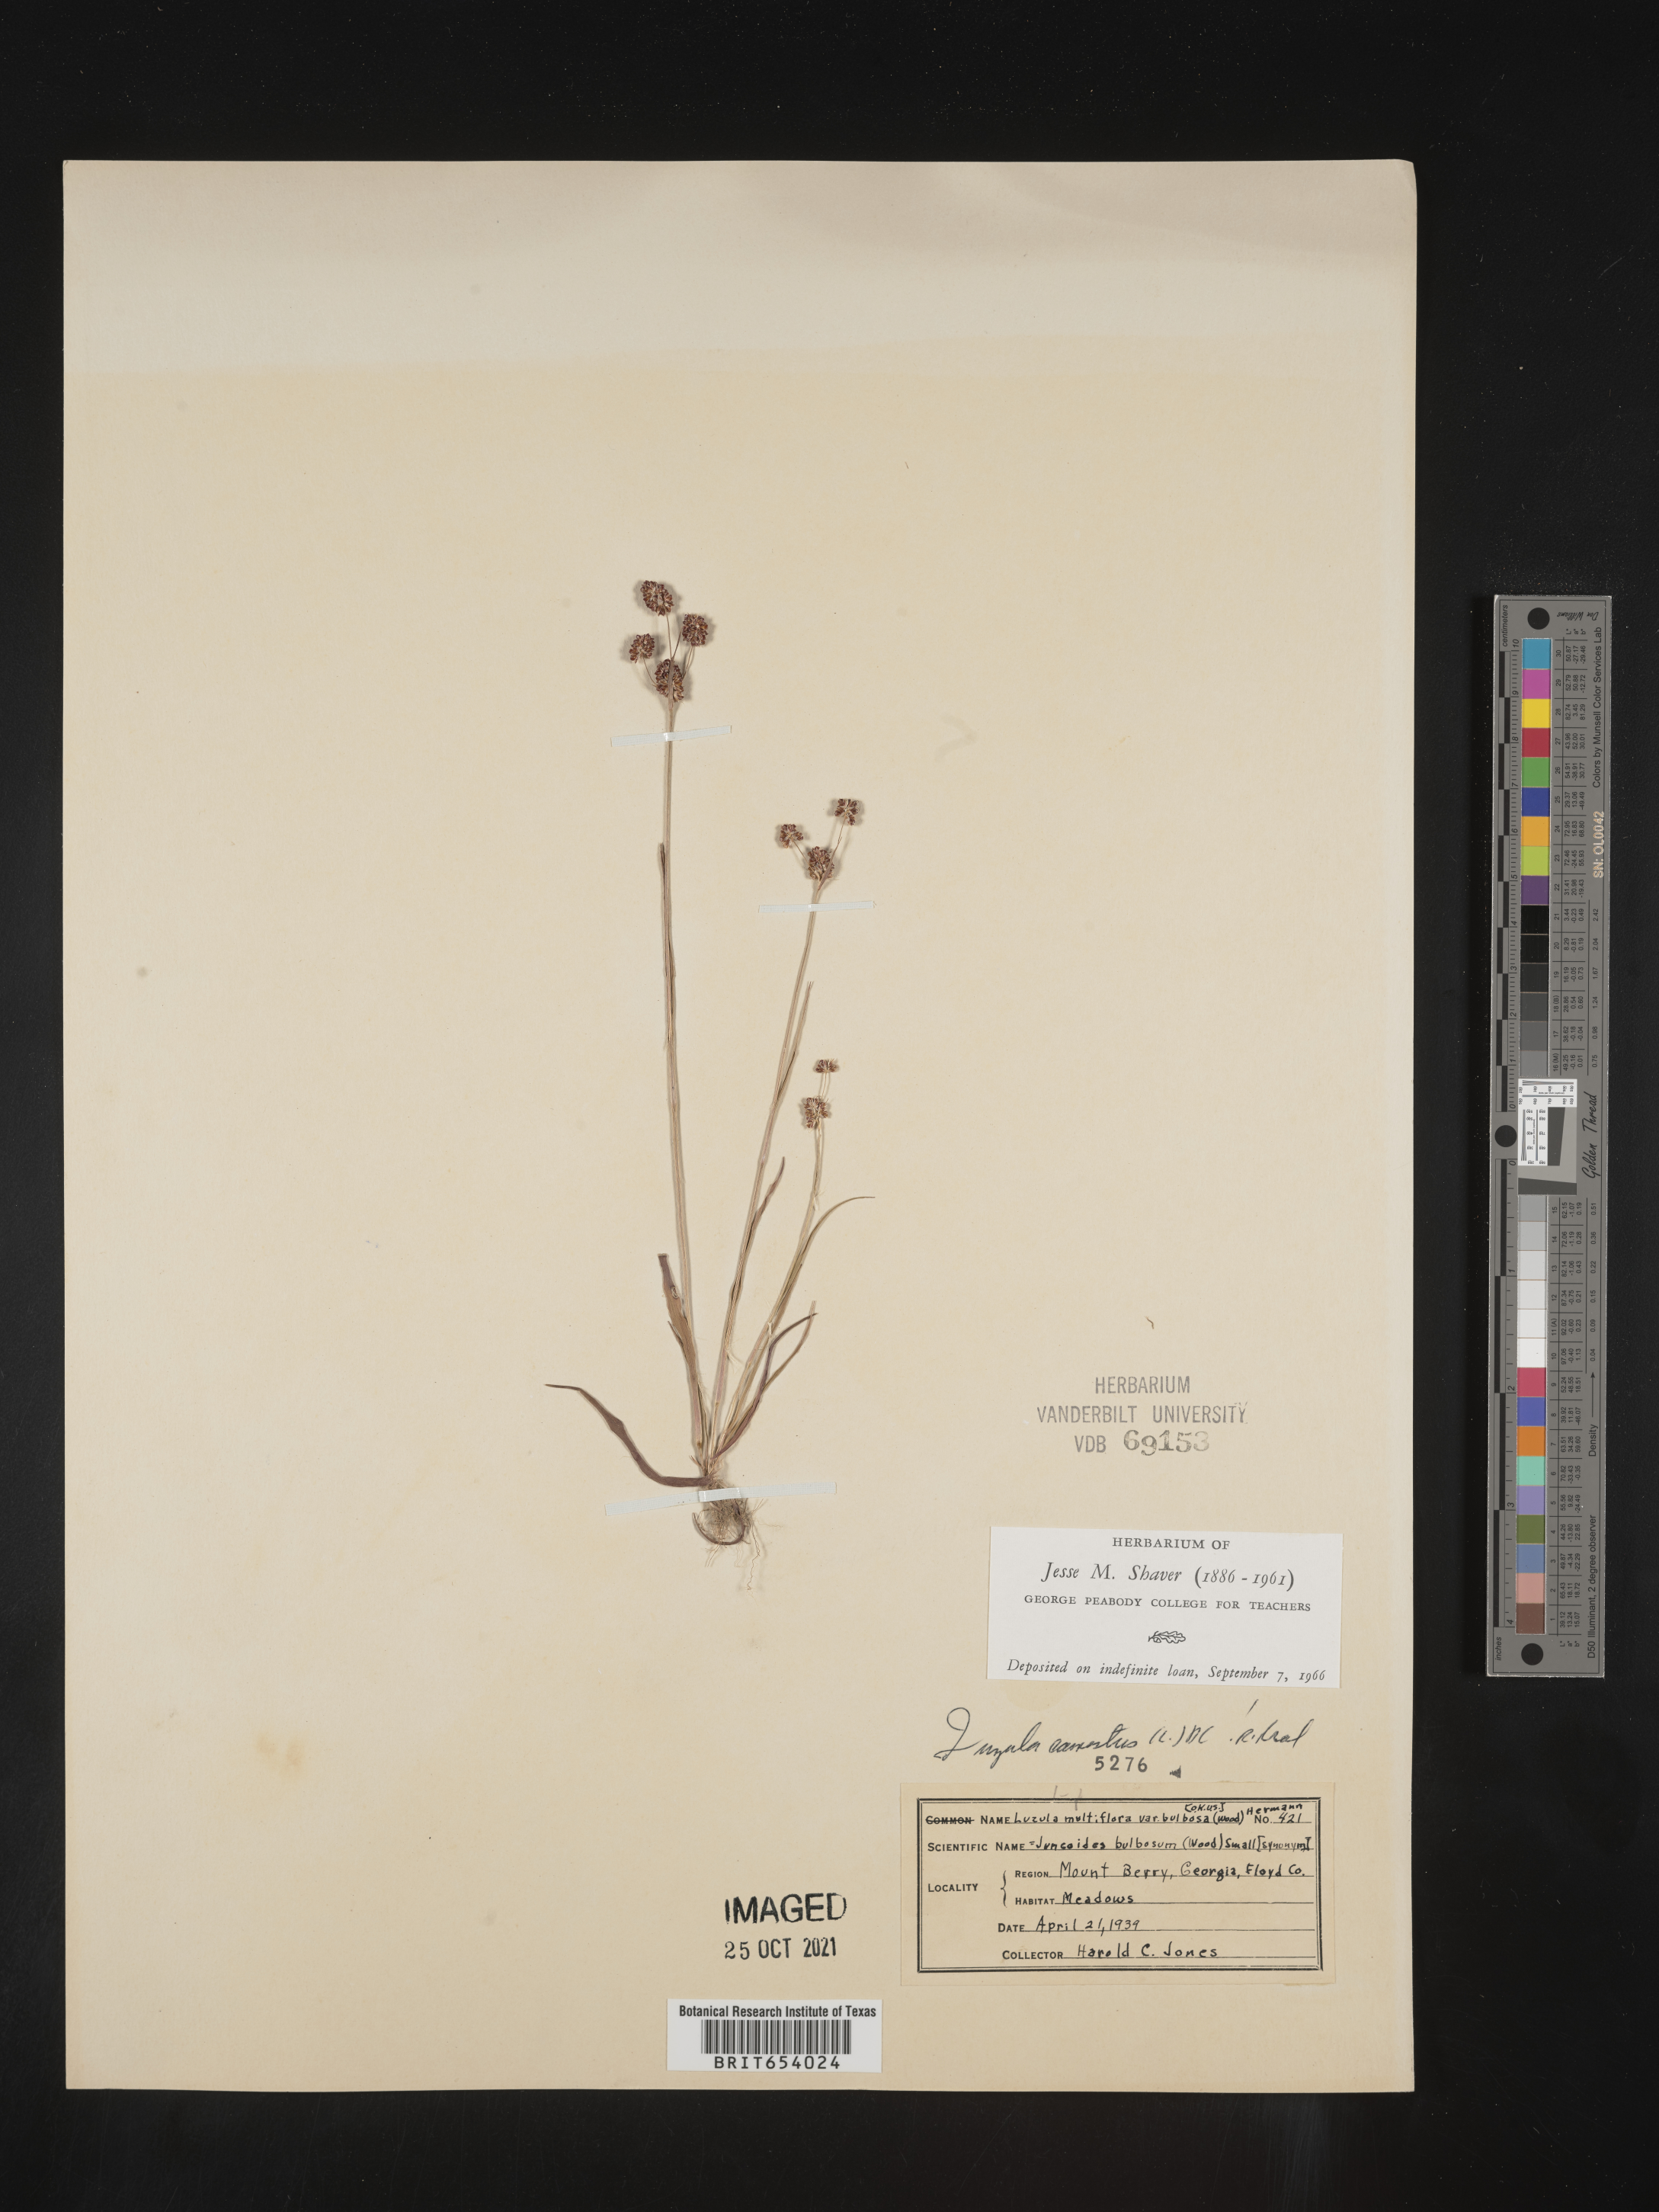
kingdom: Plantae
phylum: Tracheophyta
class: Liliopsida
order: Poales
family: Juncaceae
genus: Luzula
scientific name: Luzula echinata
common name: Hedgehog woodrush
